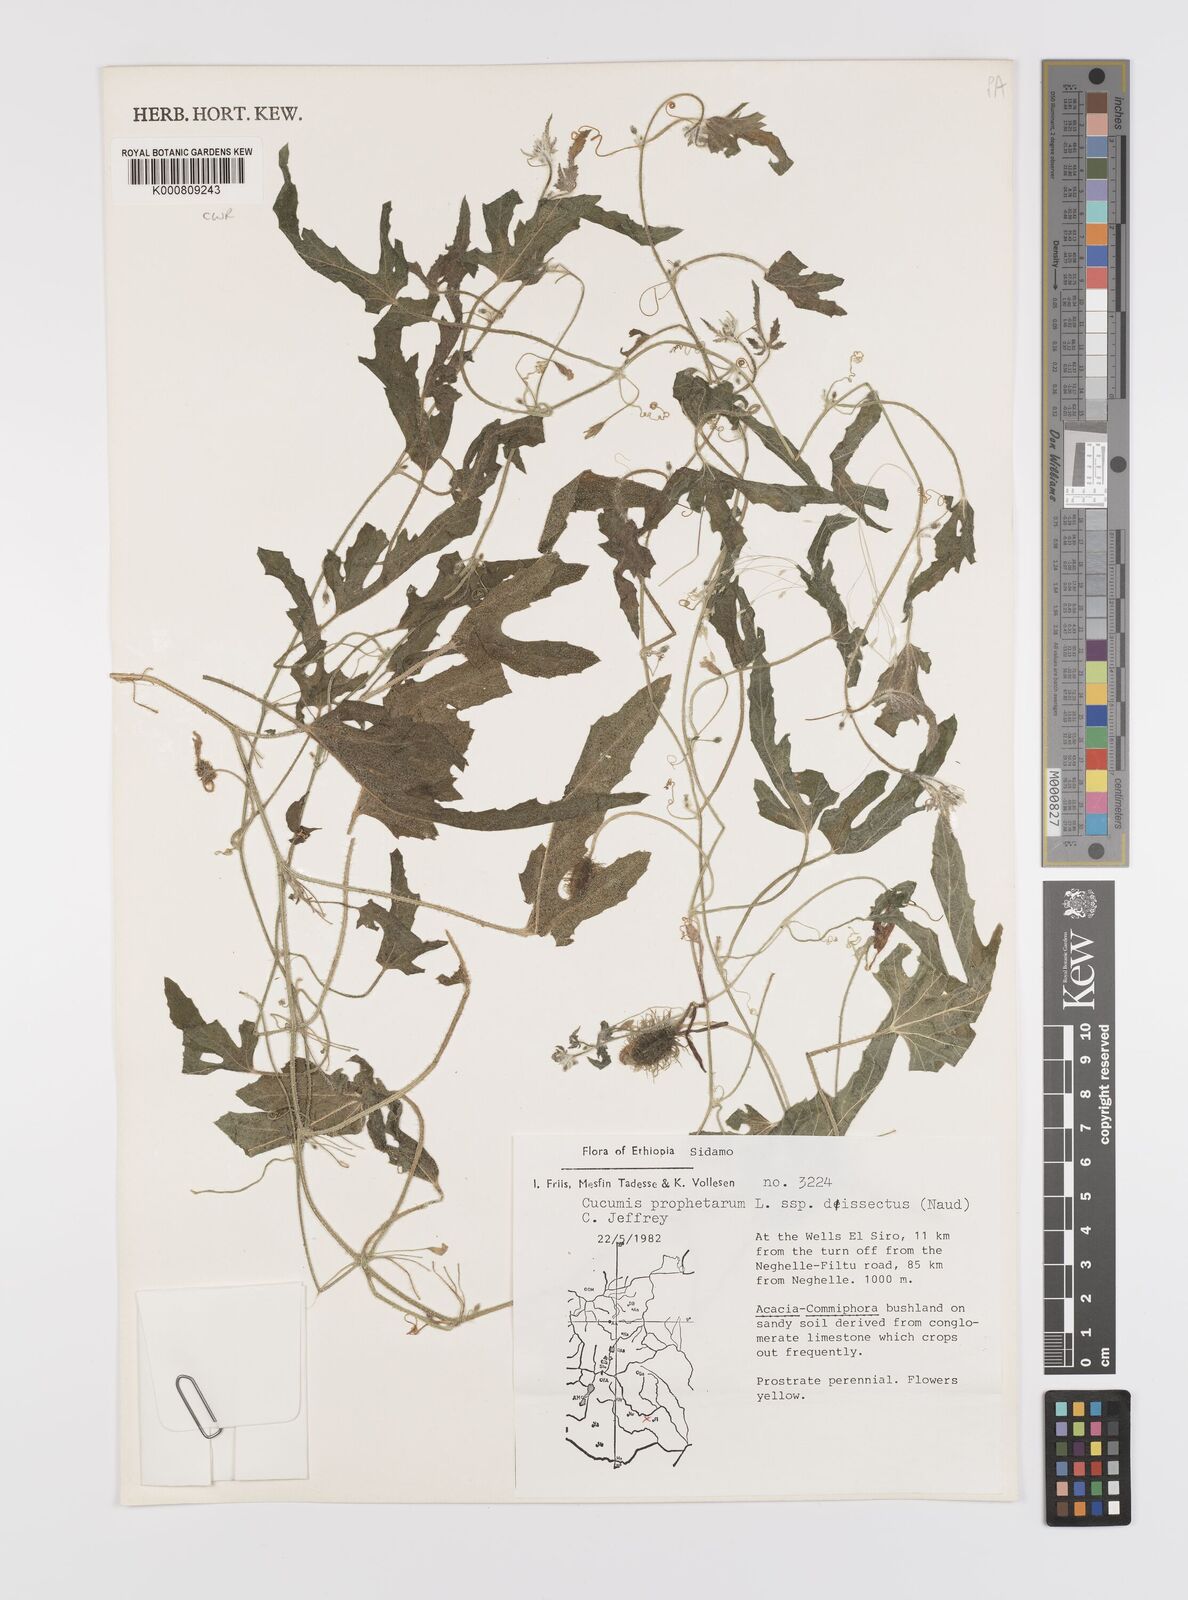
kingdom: Plantae
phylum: Tracheophyta
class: Magnoliopsida
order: Cucurbitales
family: Cucurbitaceae
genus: Cucumis
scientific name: Cucumis prophetarum
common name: Wild cucumber
